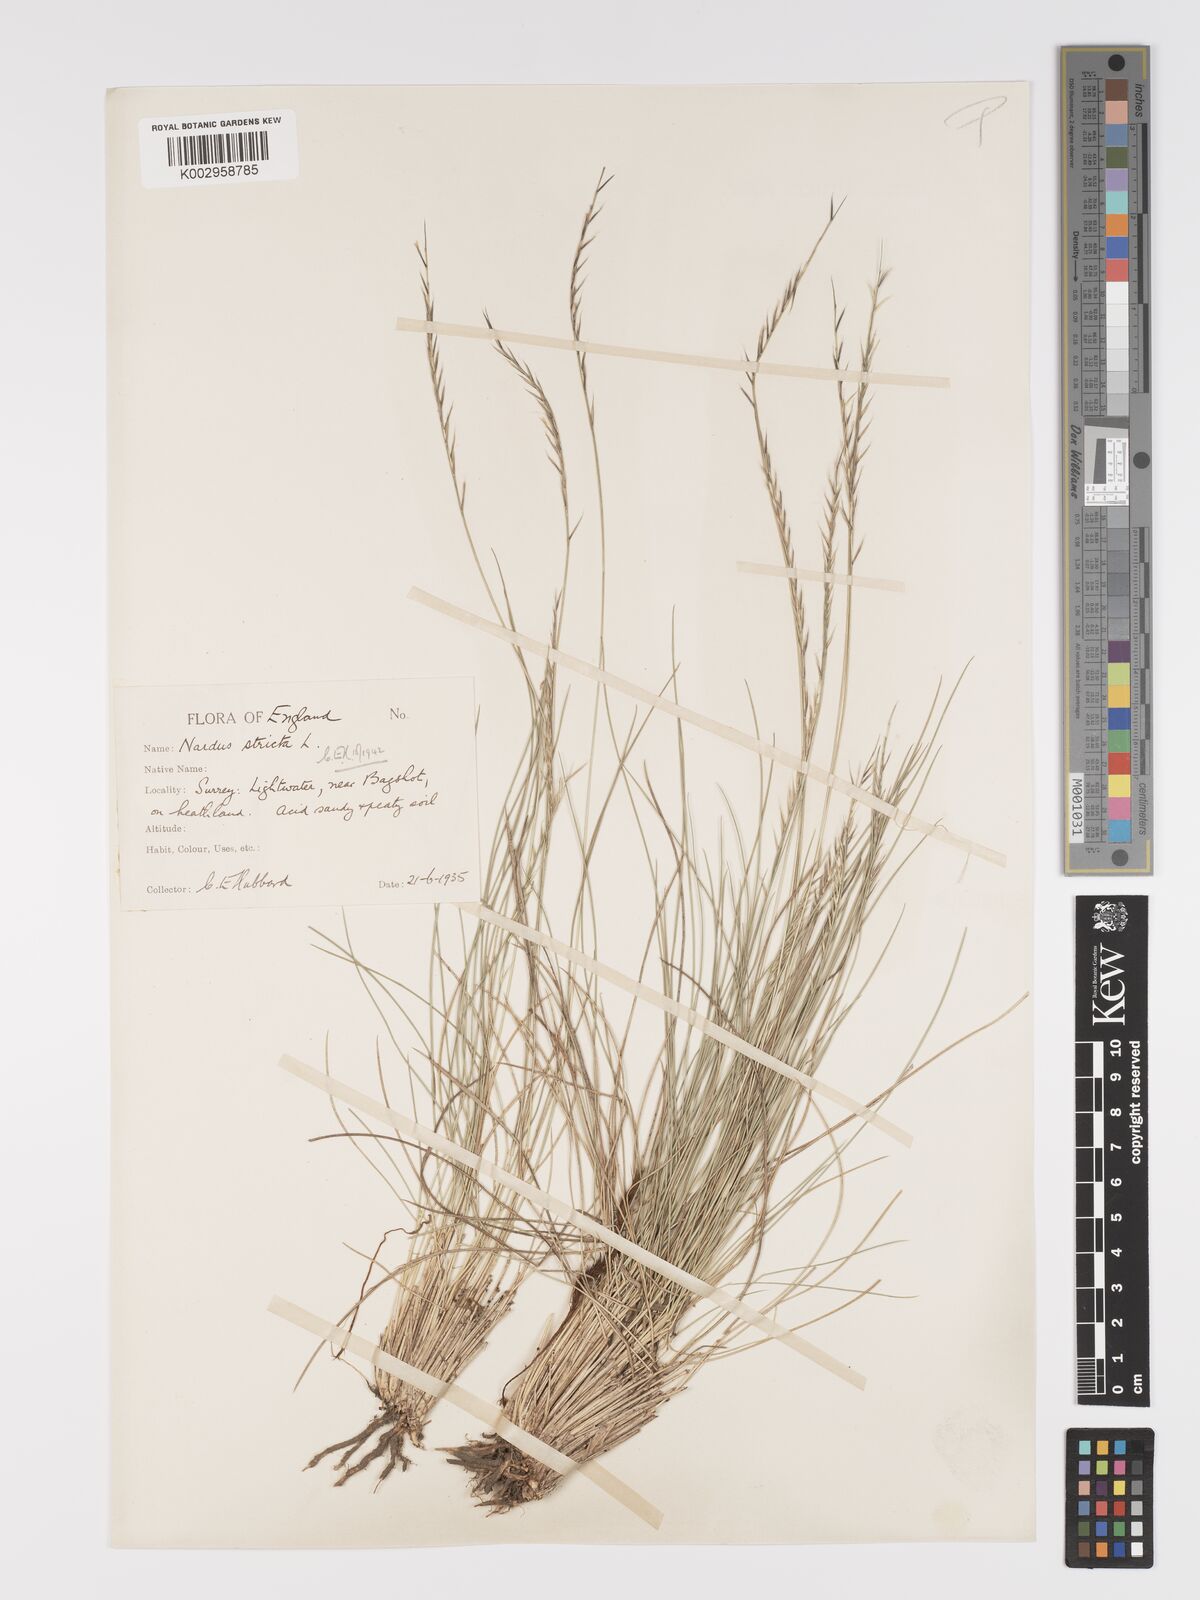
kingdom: Plantae
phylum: Tracheophyta
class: Liliopsida
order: Poales
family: Poaceae
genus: Nardus
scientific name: Nardus stricta
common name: Mat-grass
